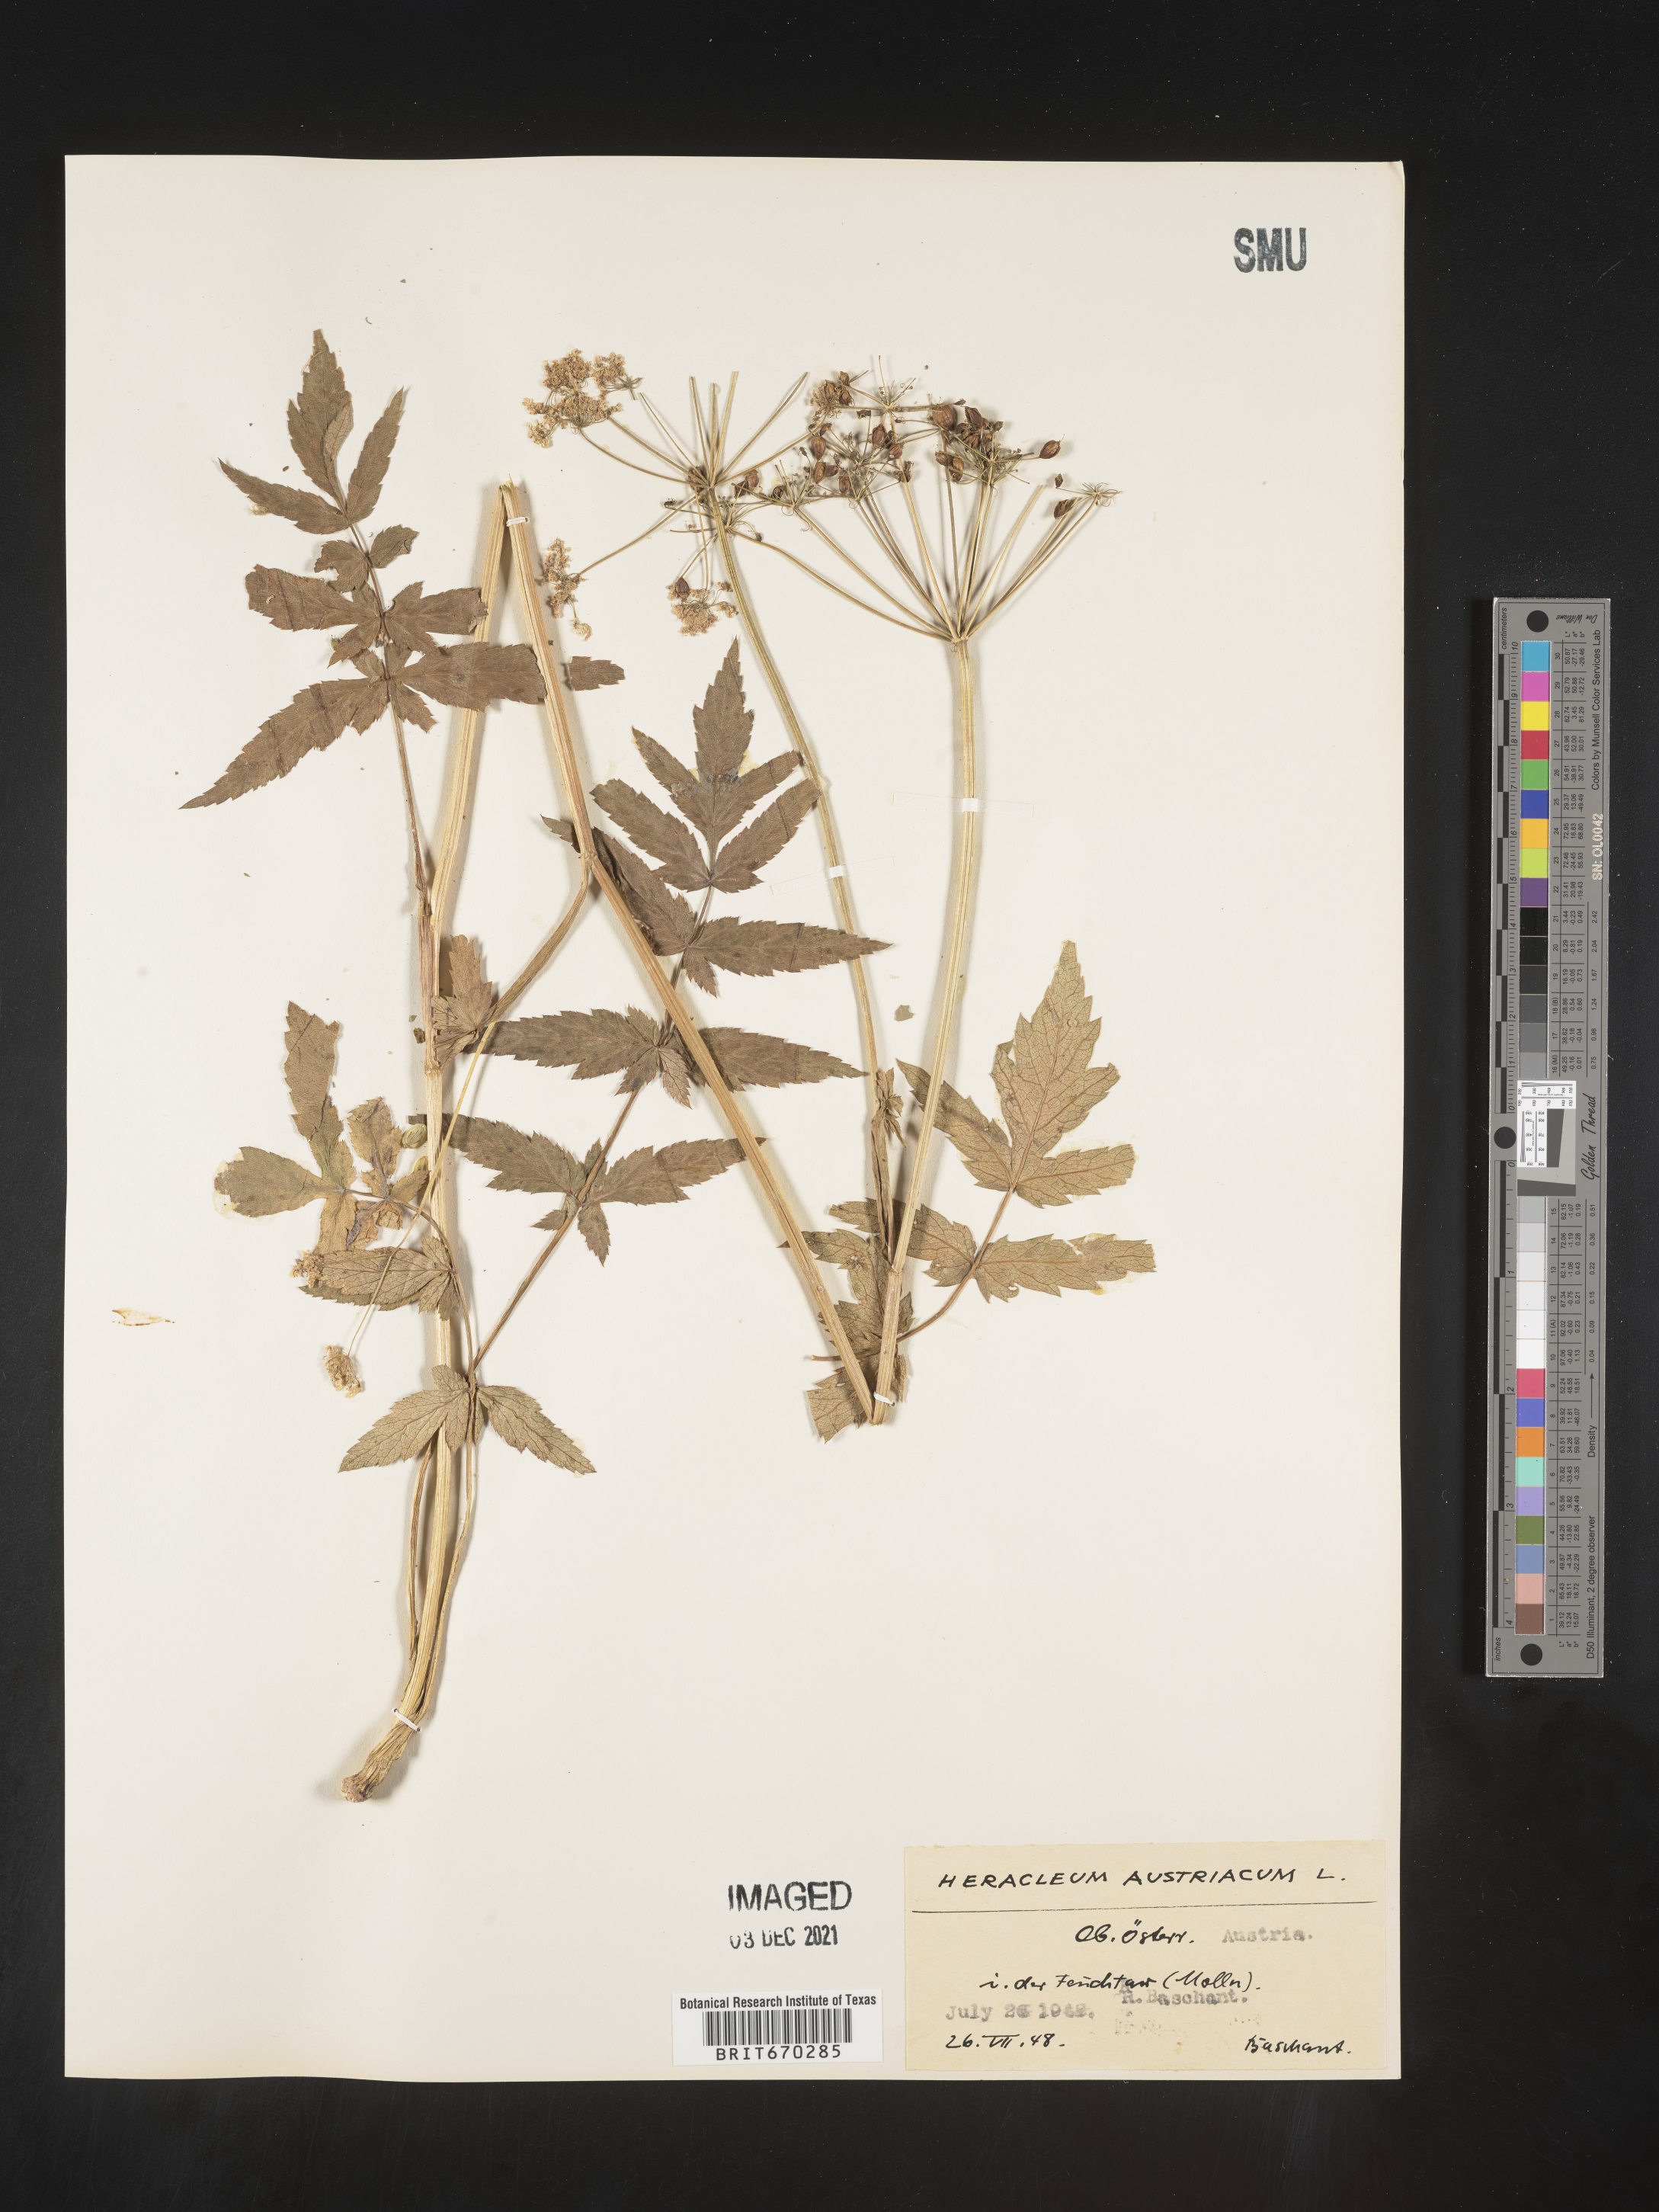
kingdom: Plantae
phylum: Tracheophyta
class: Magnoliopsida
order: Apiales
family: Apiaceae
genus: Heracleum
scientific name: Heracleum
